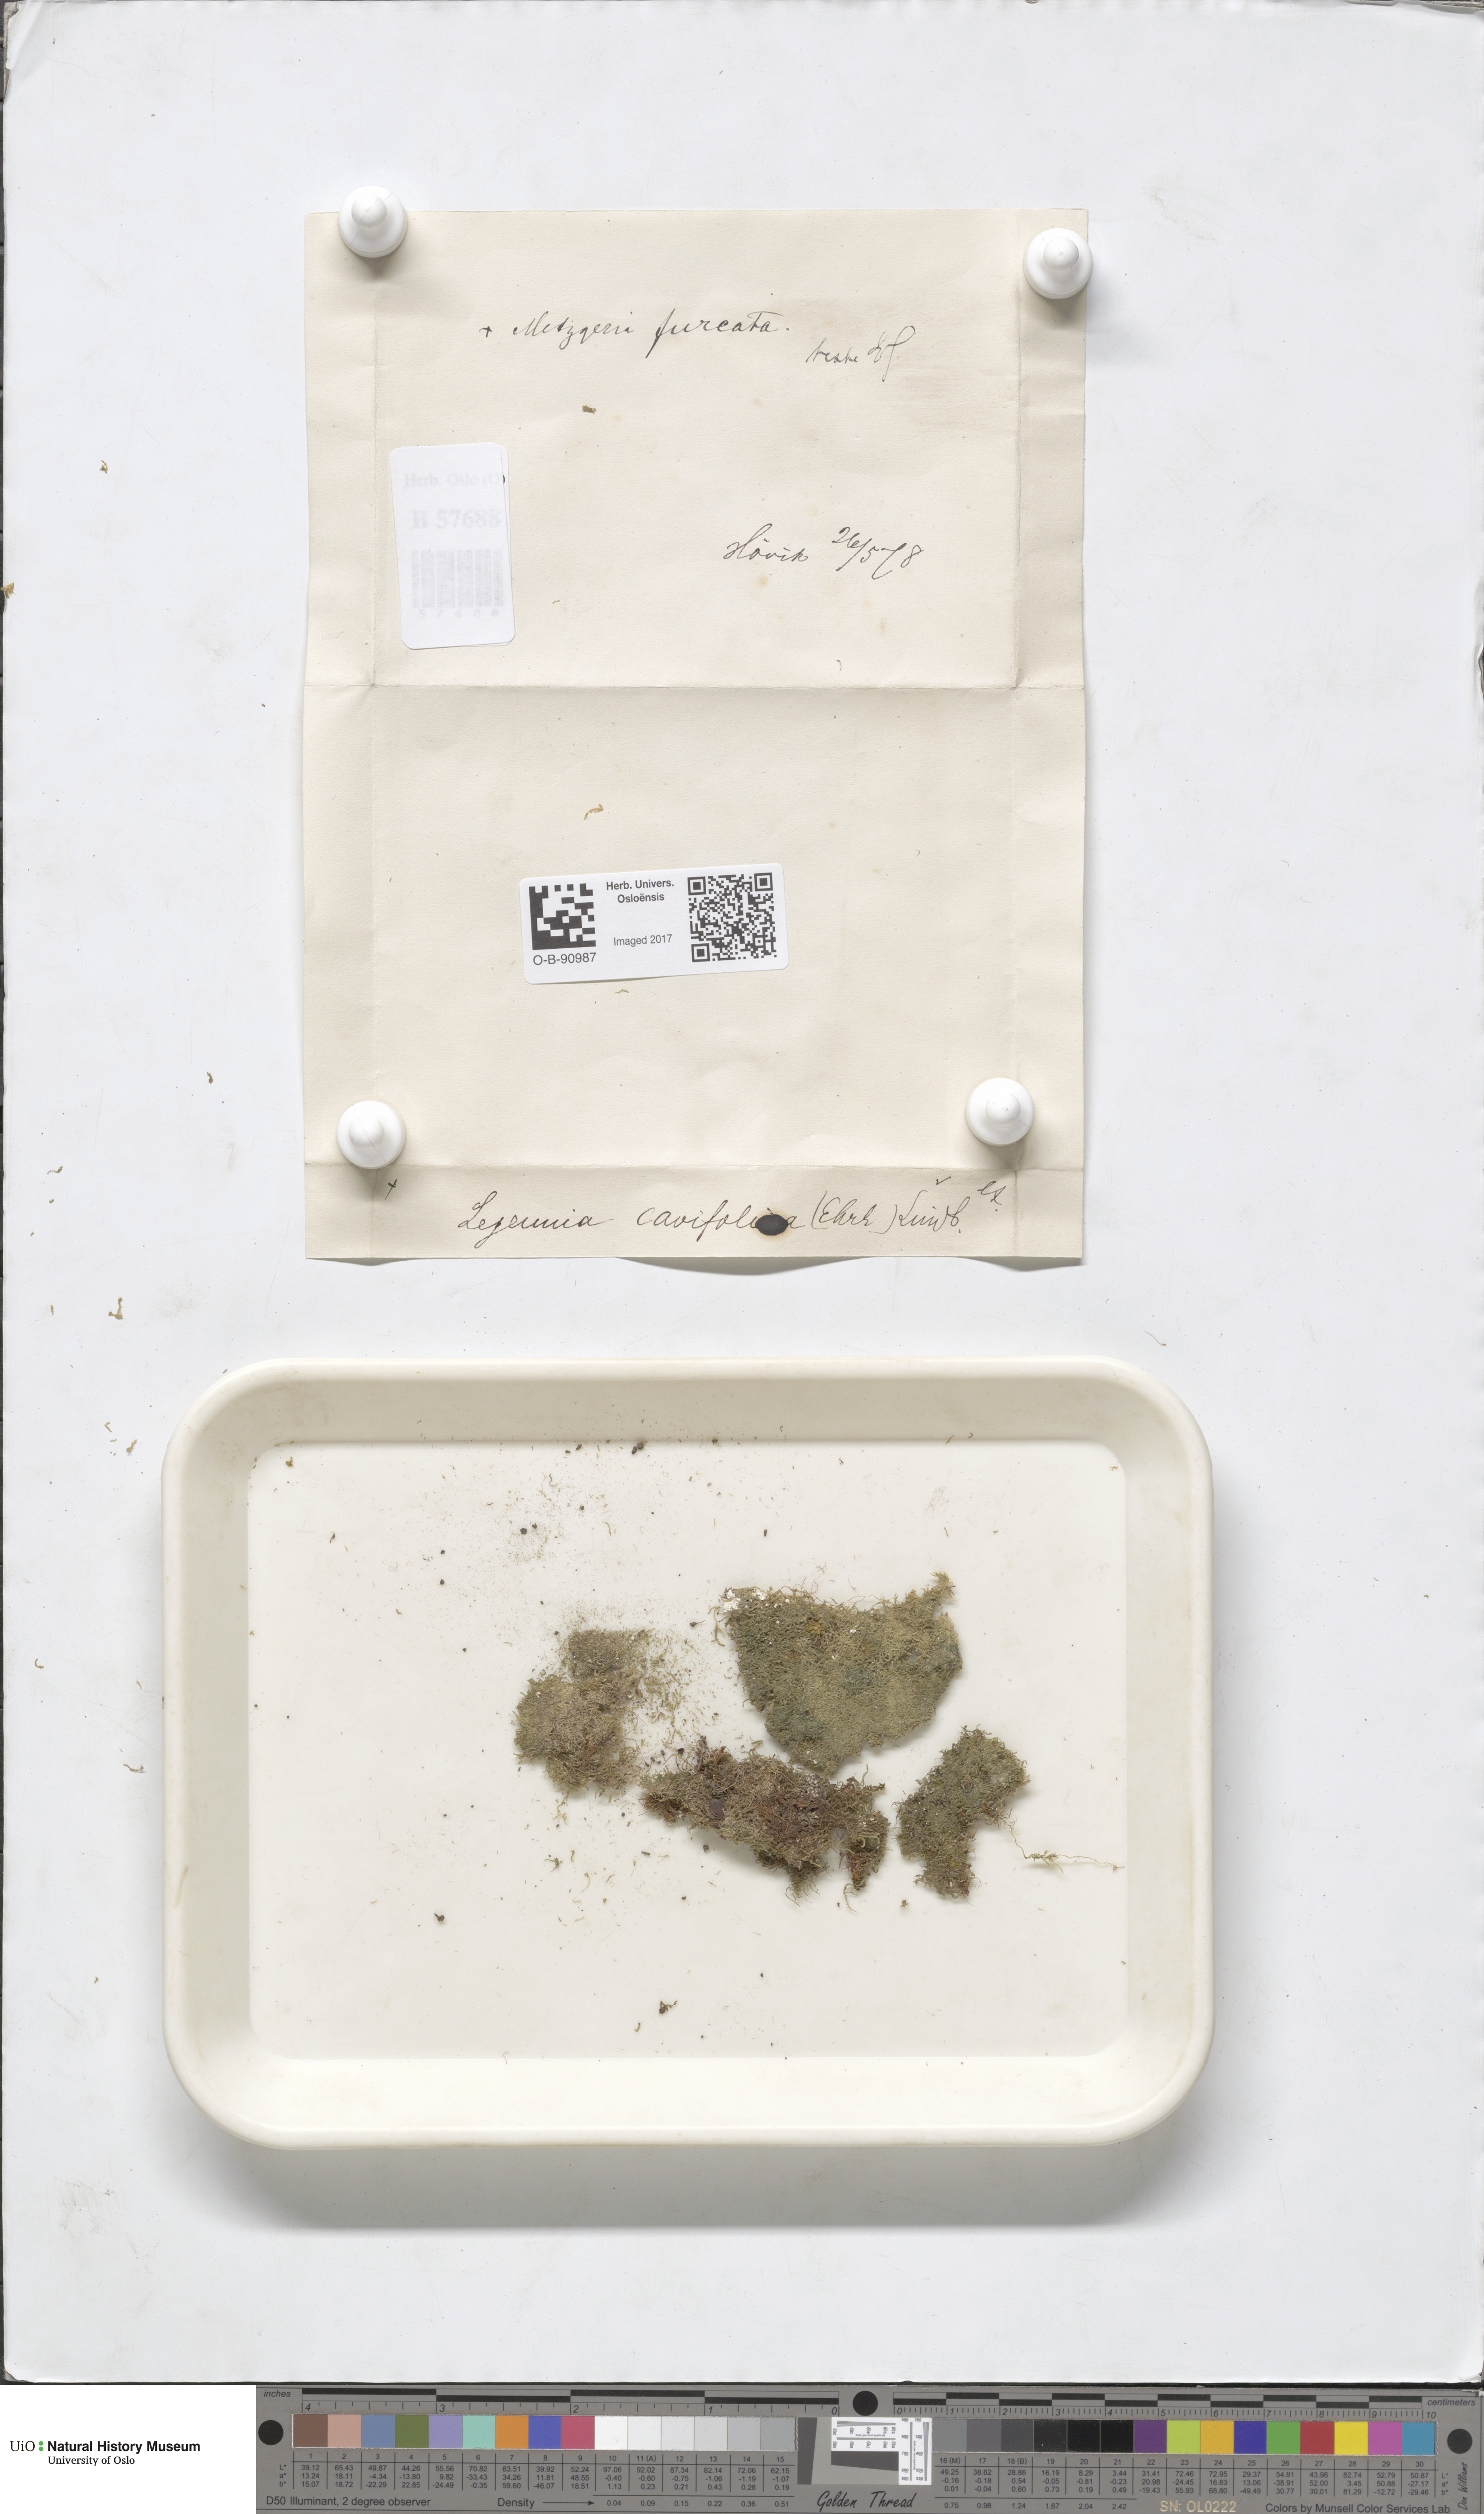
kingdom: Plantae
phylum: Marchantiophyta
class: Jungermanniopsida
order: Porellales
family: Lejeuneaceae
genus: Lejeunea
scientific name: Lejeunea cavifolia
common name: Least pouncewort
